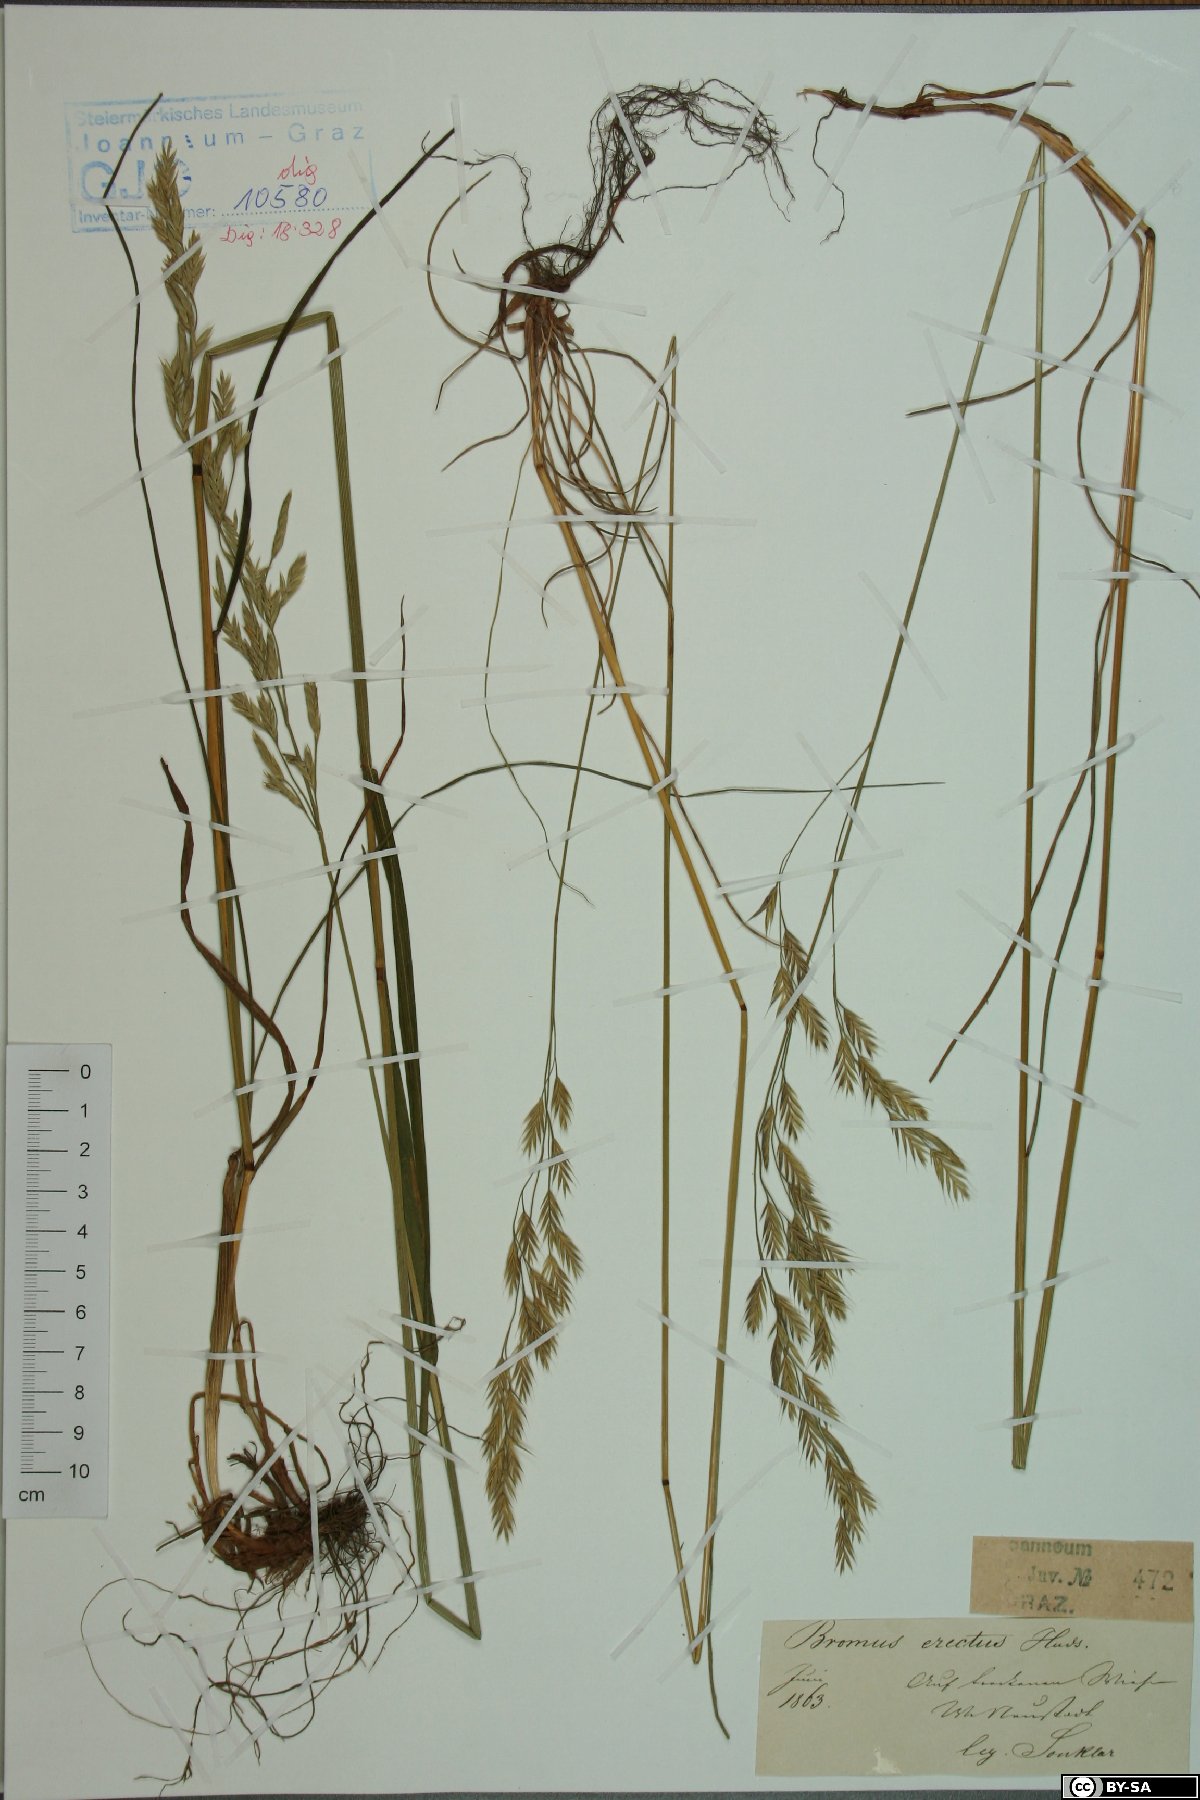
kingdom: Plantae
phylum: Tracheophyta
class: Liliopsida
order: Poales
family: Poaceae
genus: Bromus
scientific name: Bromus erectus
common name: Erect brome
